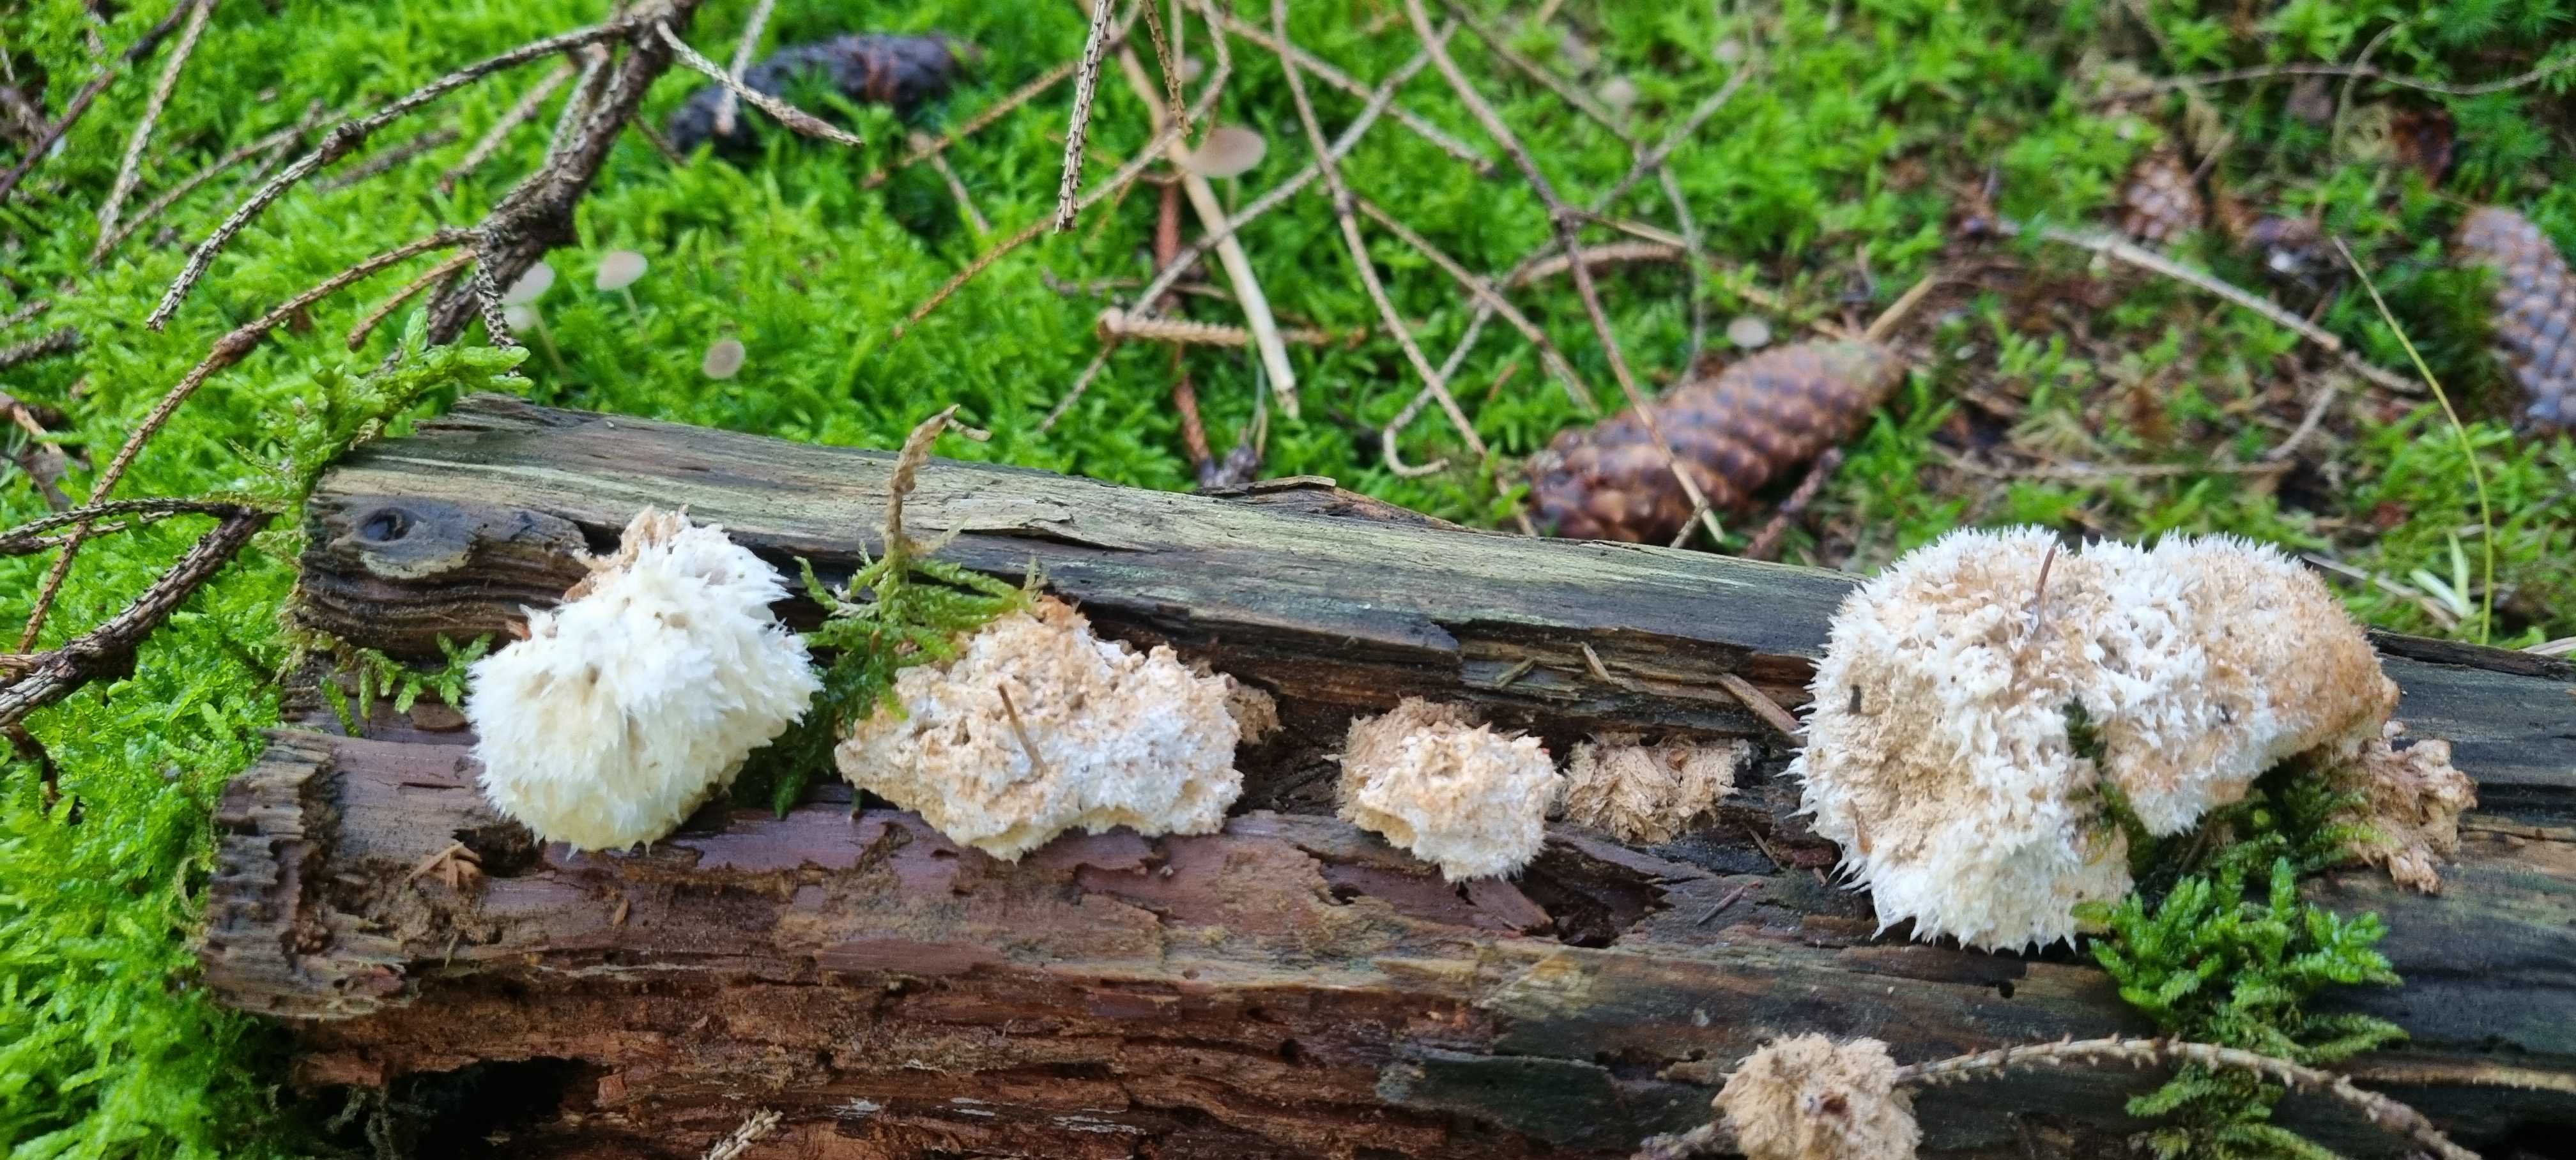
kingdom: Fungi
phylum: Basidiomycota
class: Agaricomycetes
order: Polyporales
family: Dacryobolaceae
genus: Postia
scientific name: Postia ptychogaster
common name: støvende kødporesvamp
